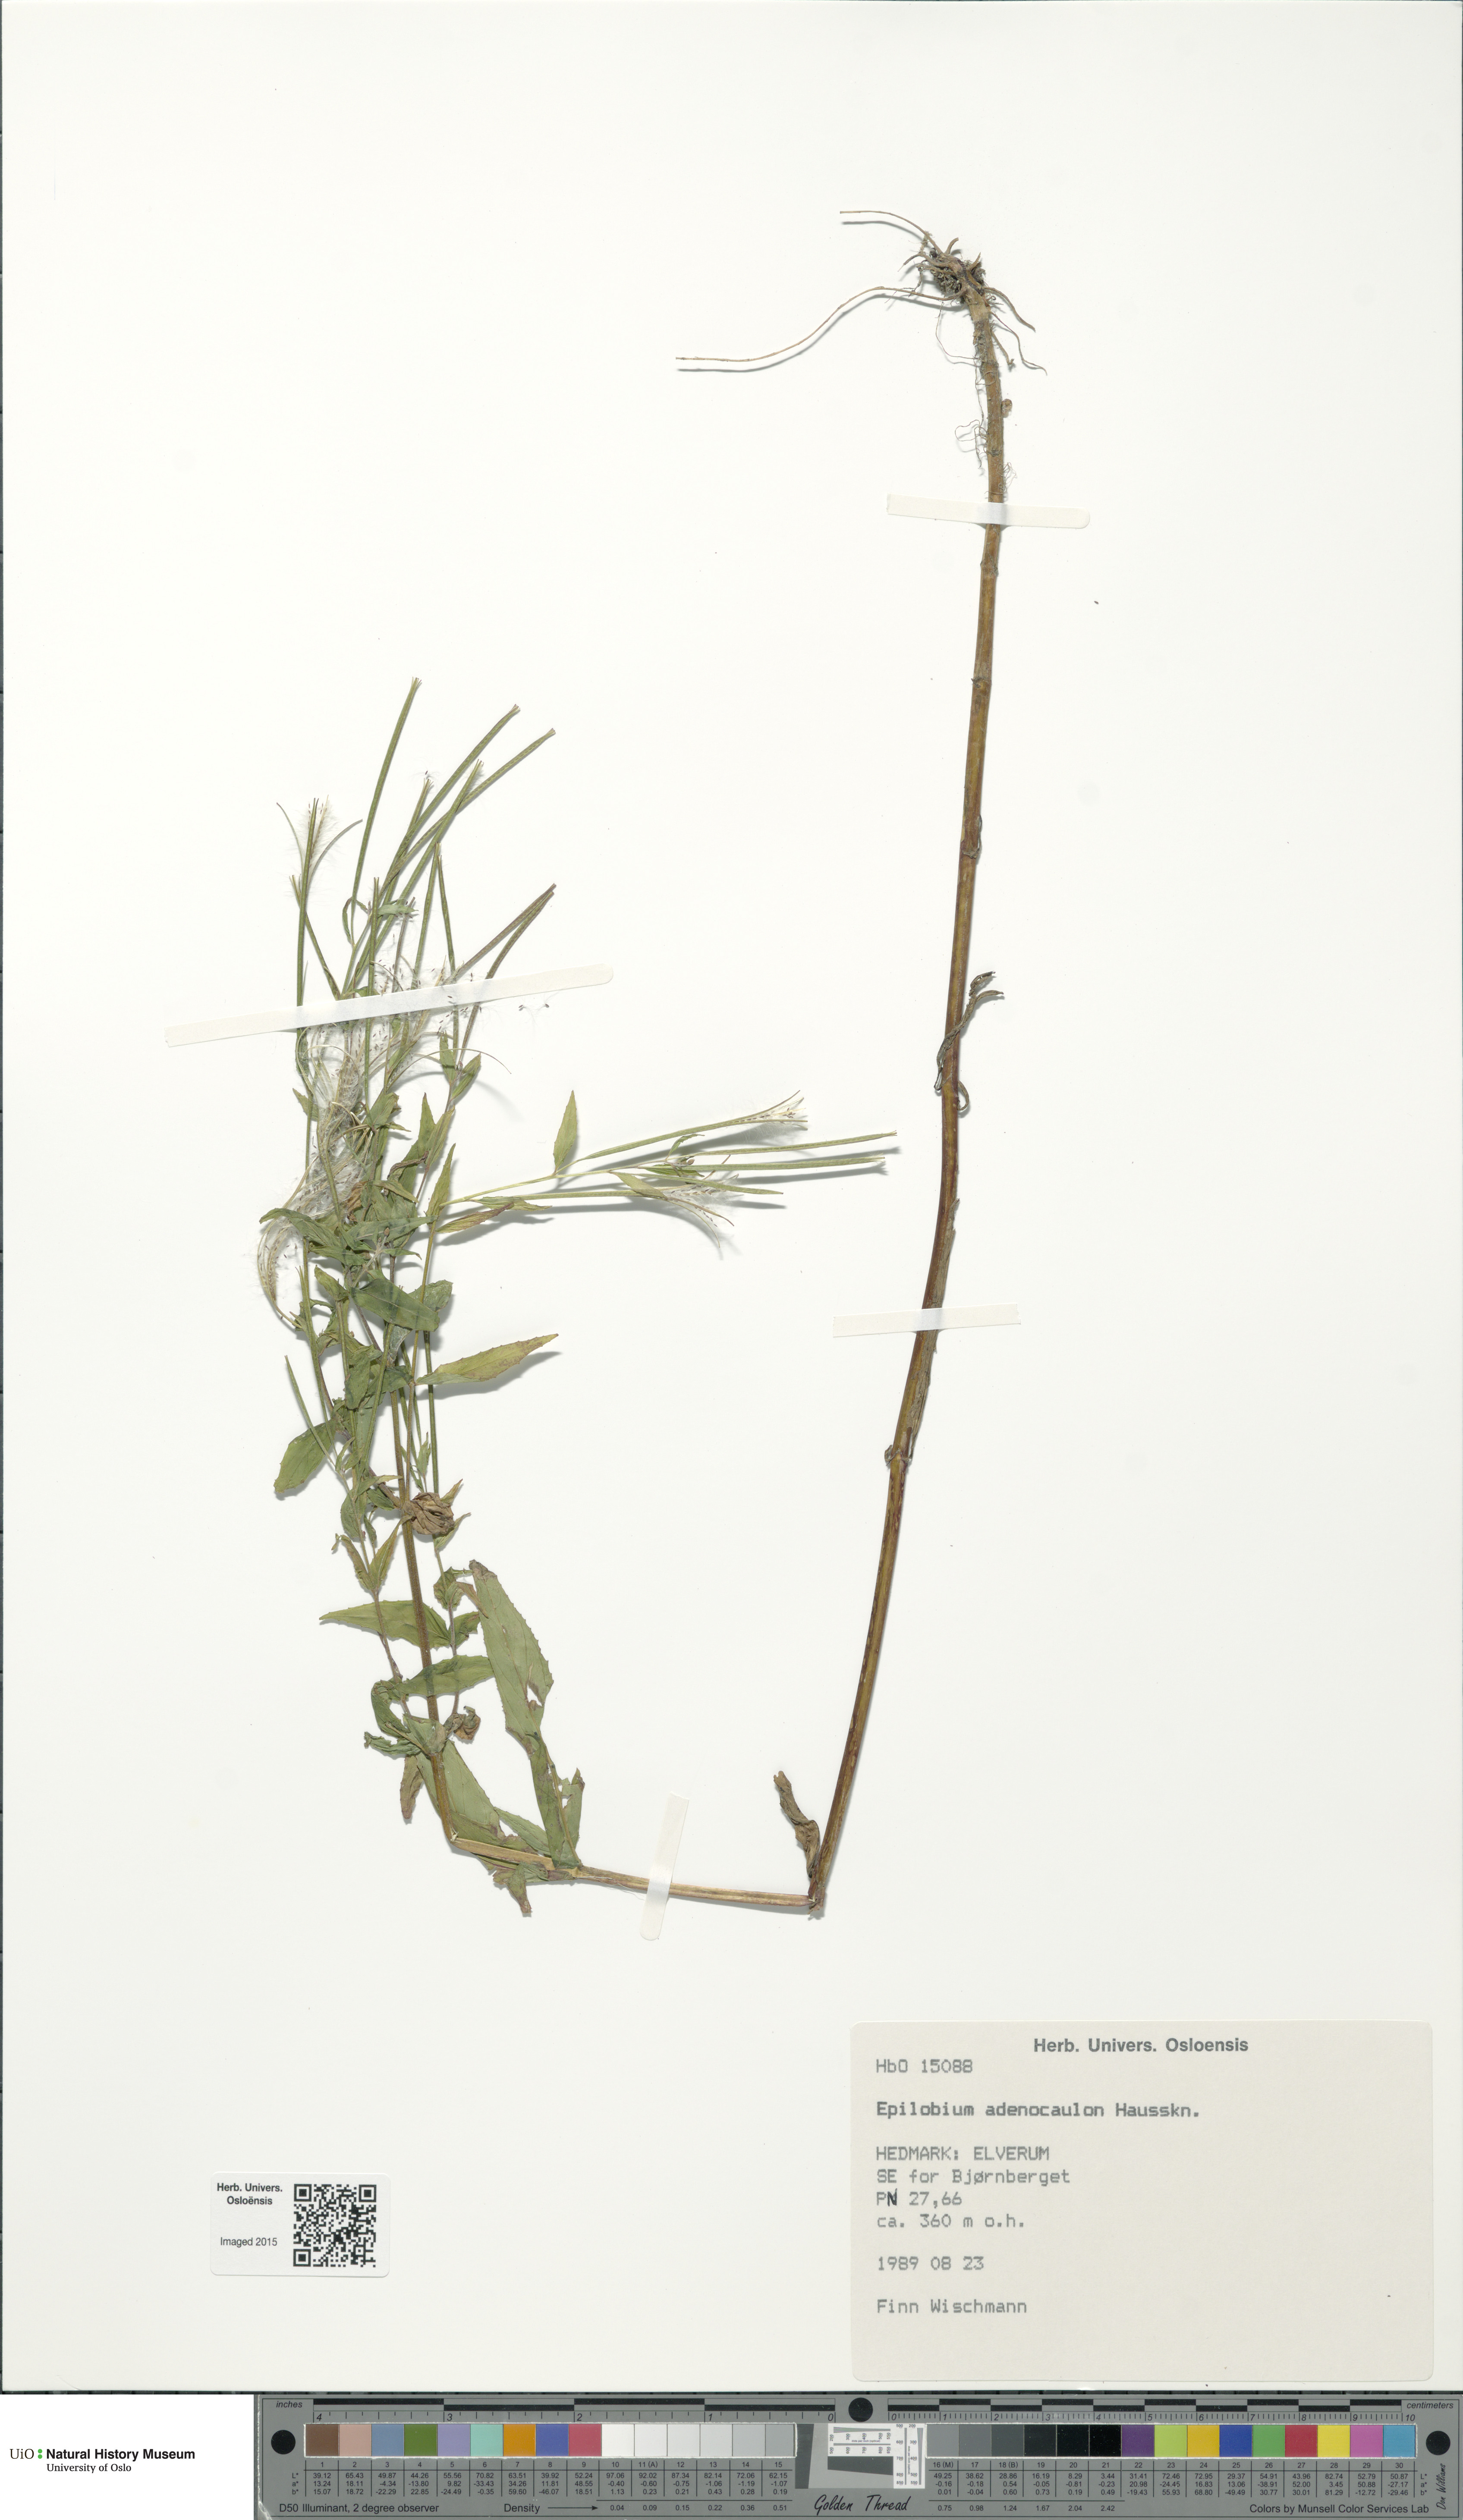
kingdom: Plantae
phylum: Tracheophyta
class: Magnoliopsida
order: Myrtales
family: Onagraceae
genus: Epilobium
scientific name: Epilobium ciliatum
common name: American willowherb
